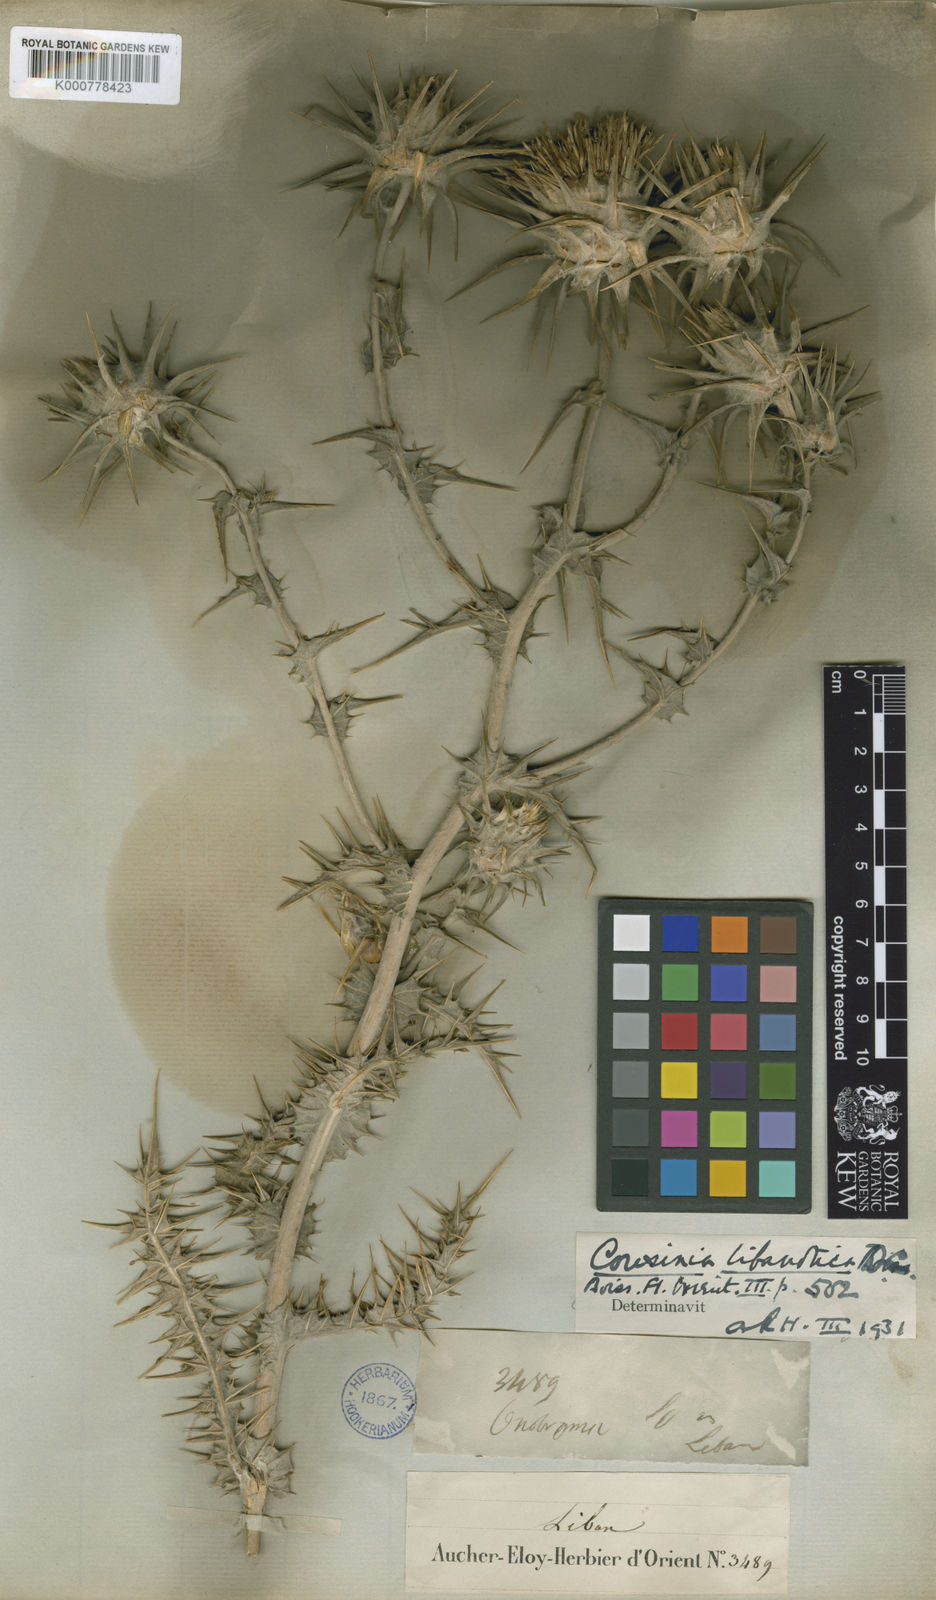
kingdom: Plantae
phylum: Tracheophyta
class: Magnoliopsida
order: Asterales
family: Asteraceae
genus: Cousinia
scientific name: Cousinia libanotica
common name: Lebanon cousinia
